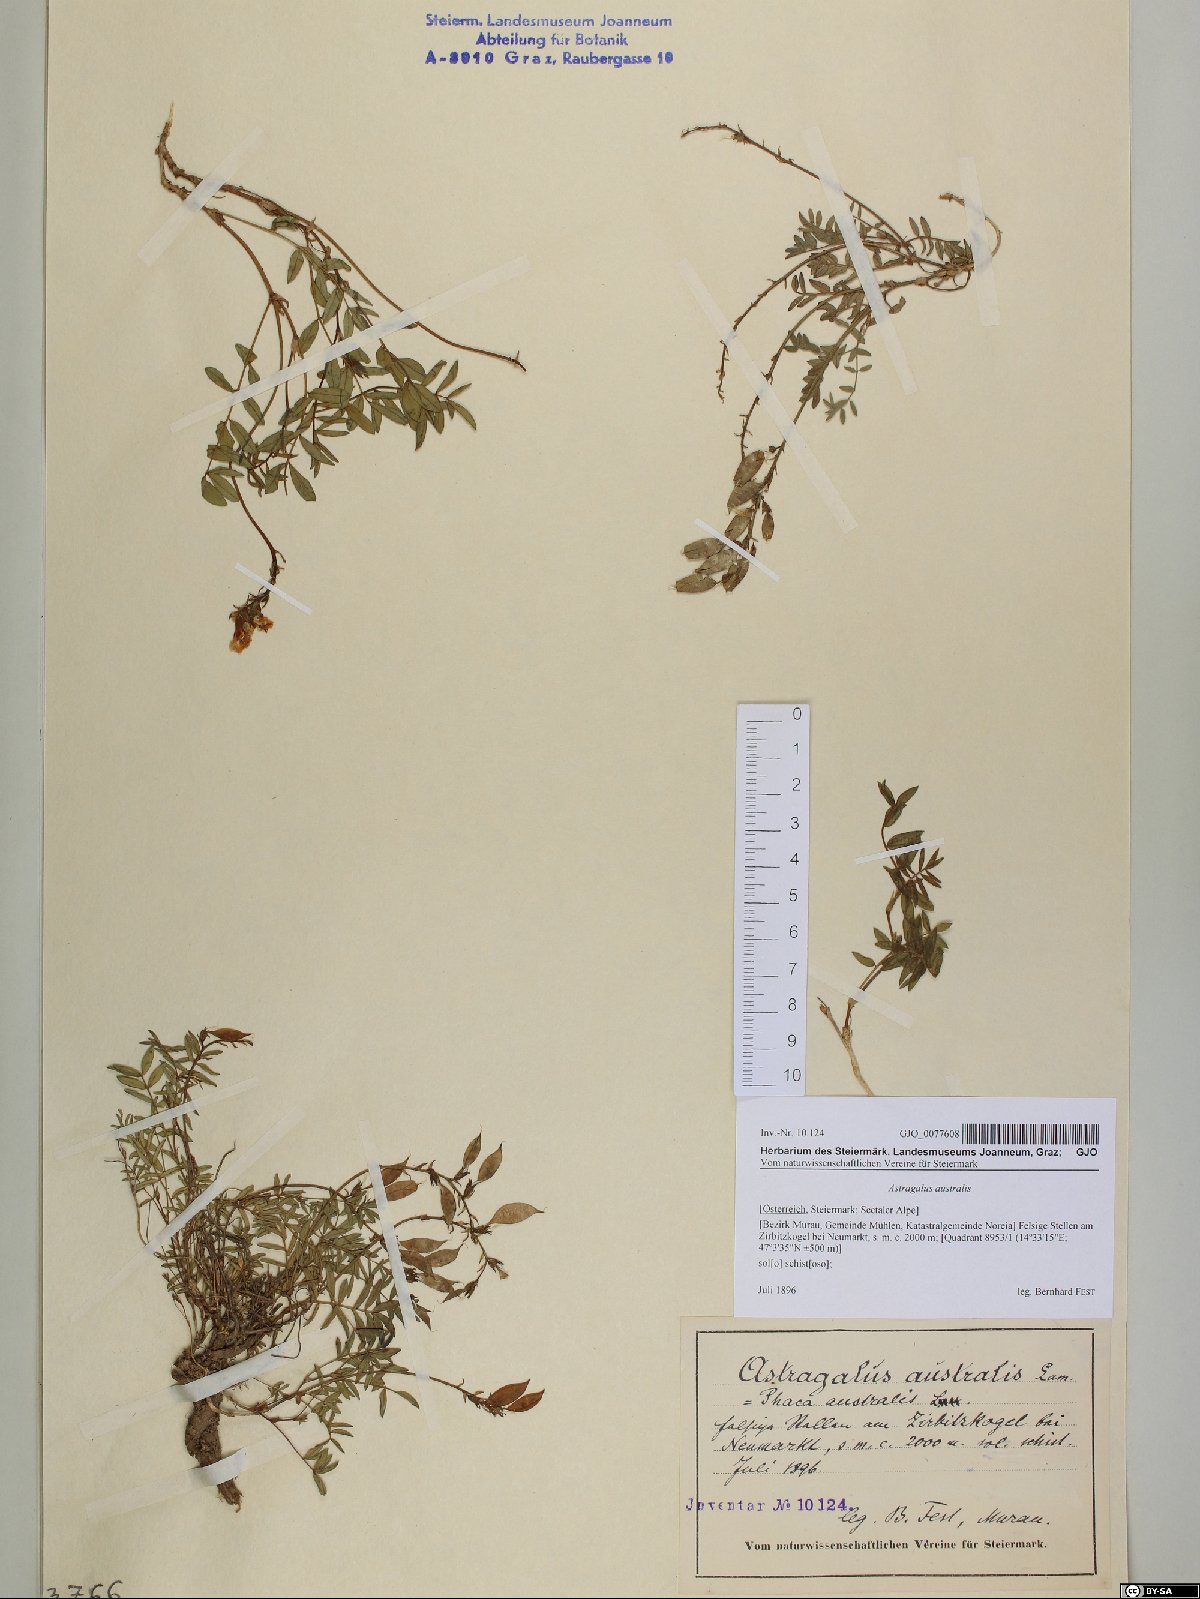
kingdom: Plantae
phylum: Tracheophyta
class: Magnoliopsida
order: Fabales
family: Fabaceae
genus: Astragalus
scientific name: Astragalus australis
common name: Indian milk-vetch
